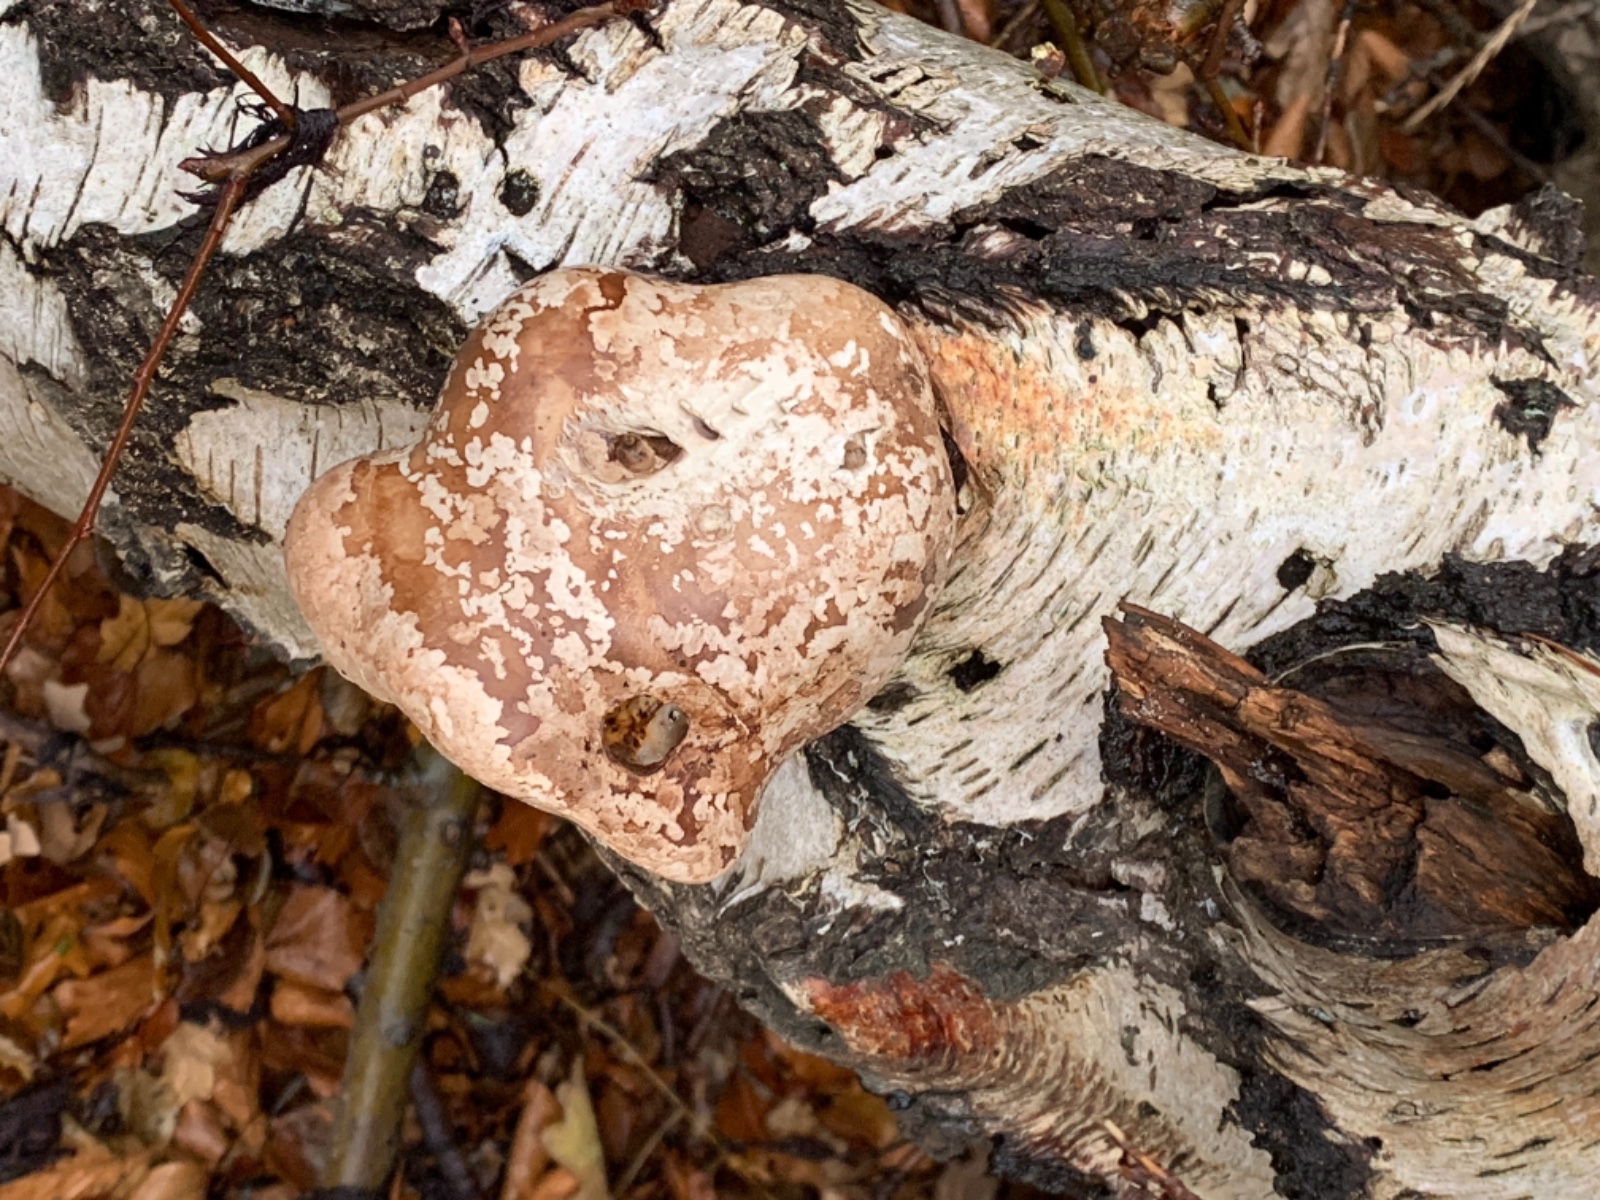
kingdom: Fungi
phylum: Basidiomycota
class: Agaricomycetes
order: Polyporales
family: Fomitopsidaceae
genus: Fomitopsis
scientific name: Fomitopsis betulina
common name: birkeporesvamp
